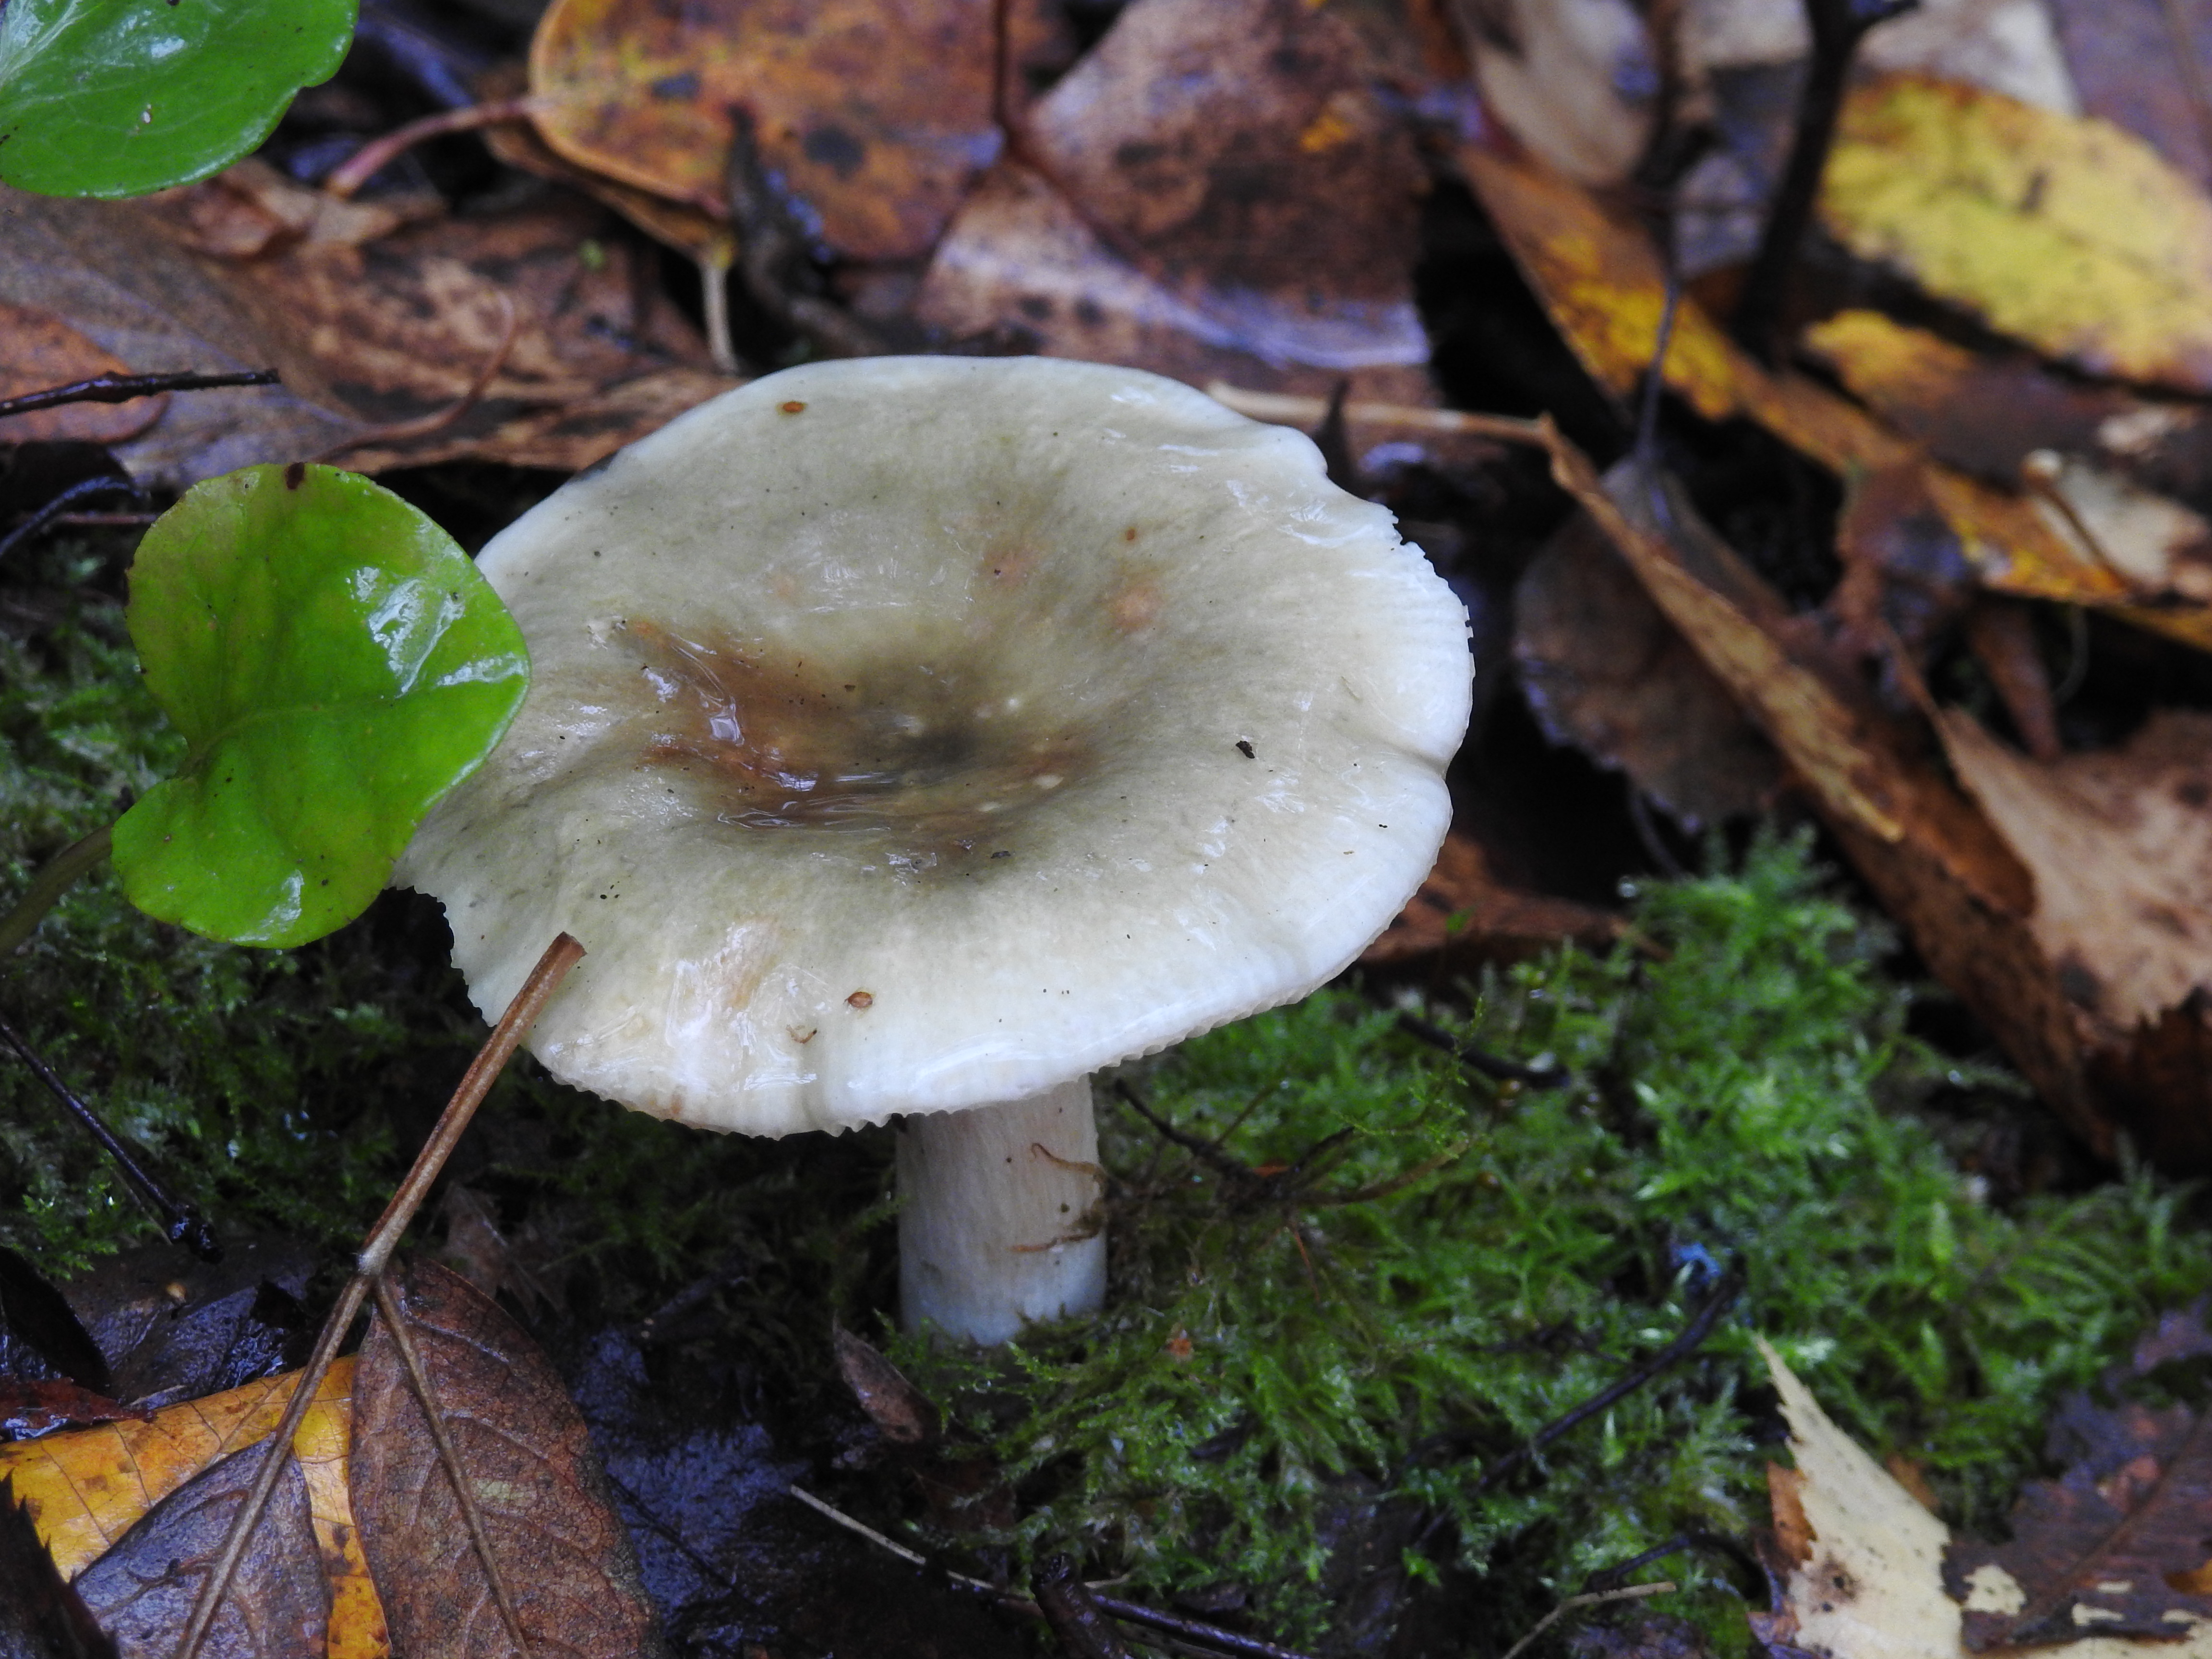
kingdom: Fungi
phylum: Basidiomycota
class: Agaricomycetes
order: Russulales
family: Russulaceae
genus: Russula
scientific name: Russula aeruginea
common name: Green brittlegill
